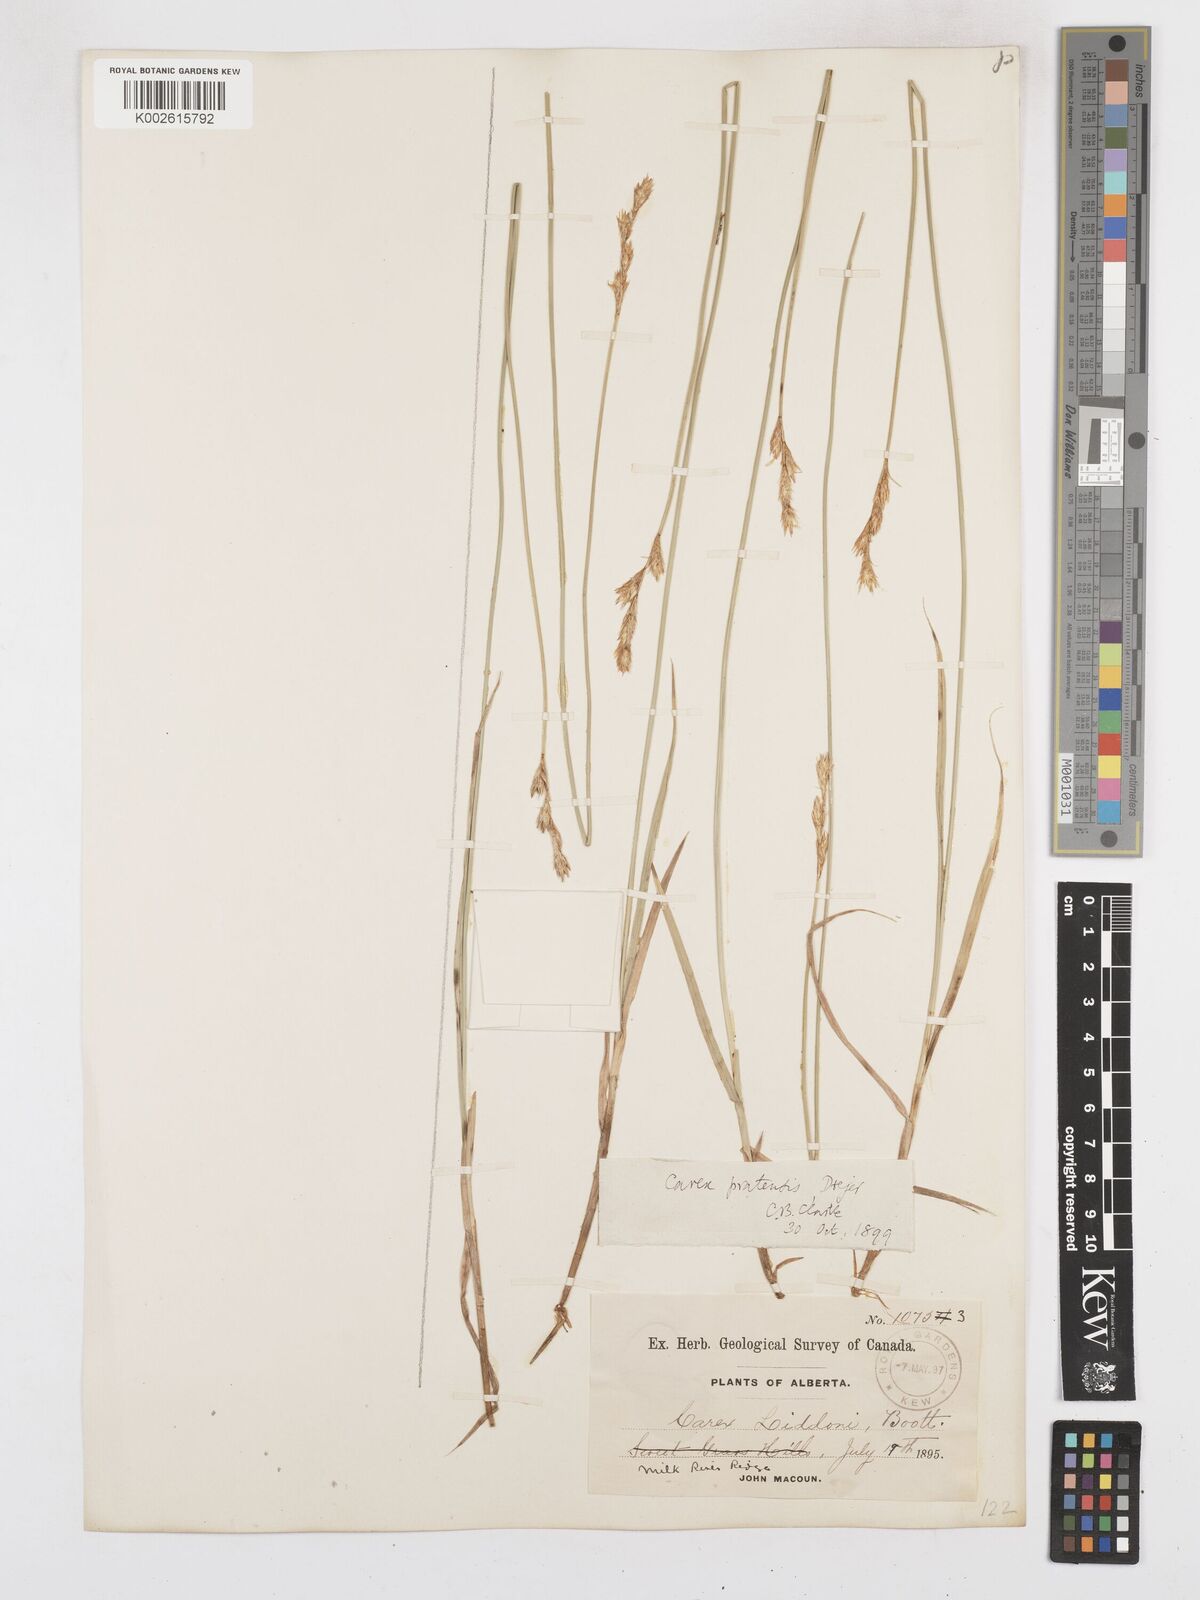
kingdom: Plantae
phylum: Tracheophyta
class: Liliopsida
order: Poales
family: Cyperaceae
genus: Carex
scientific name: Carex praticola
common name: Large-fruited oval sedge
